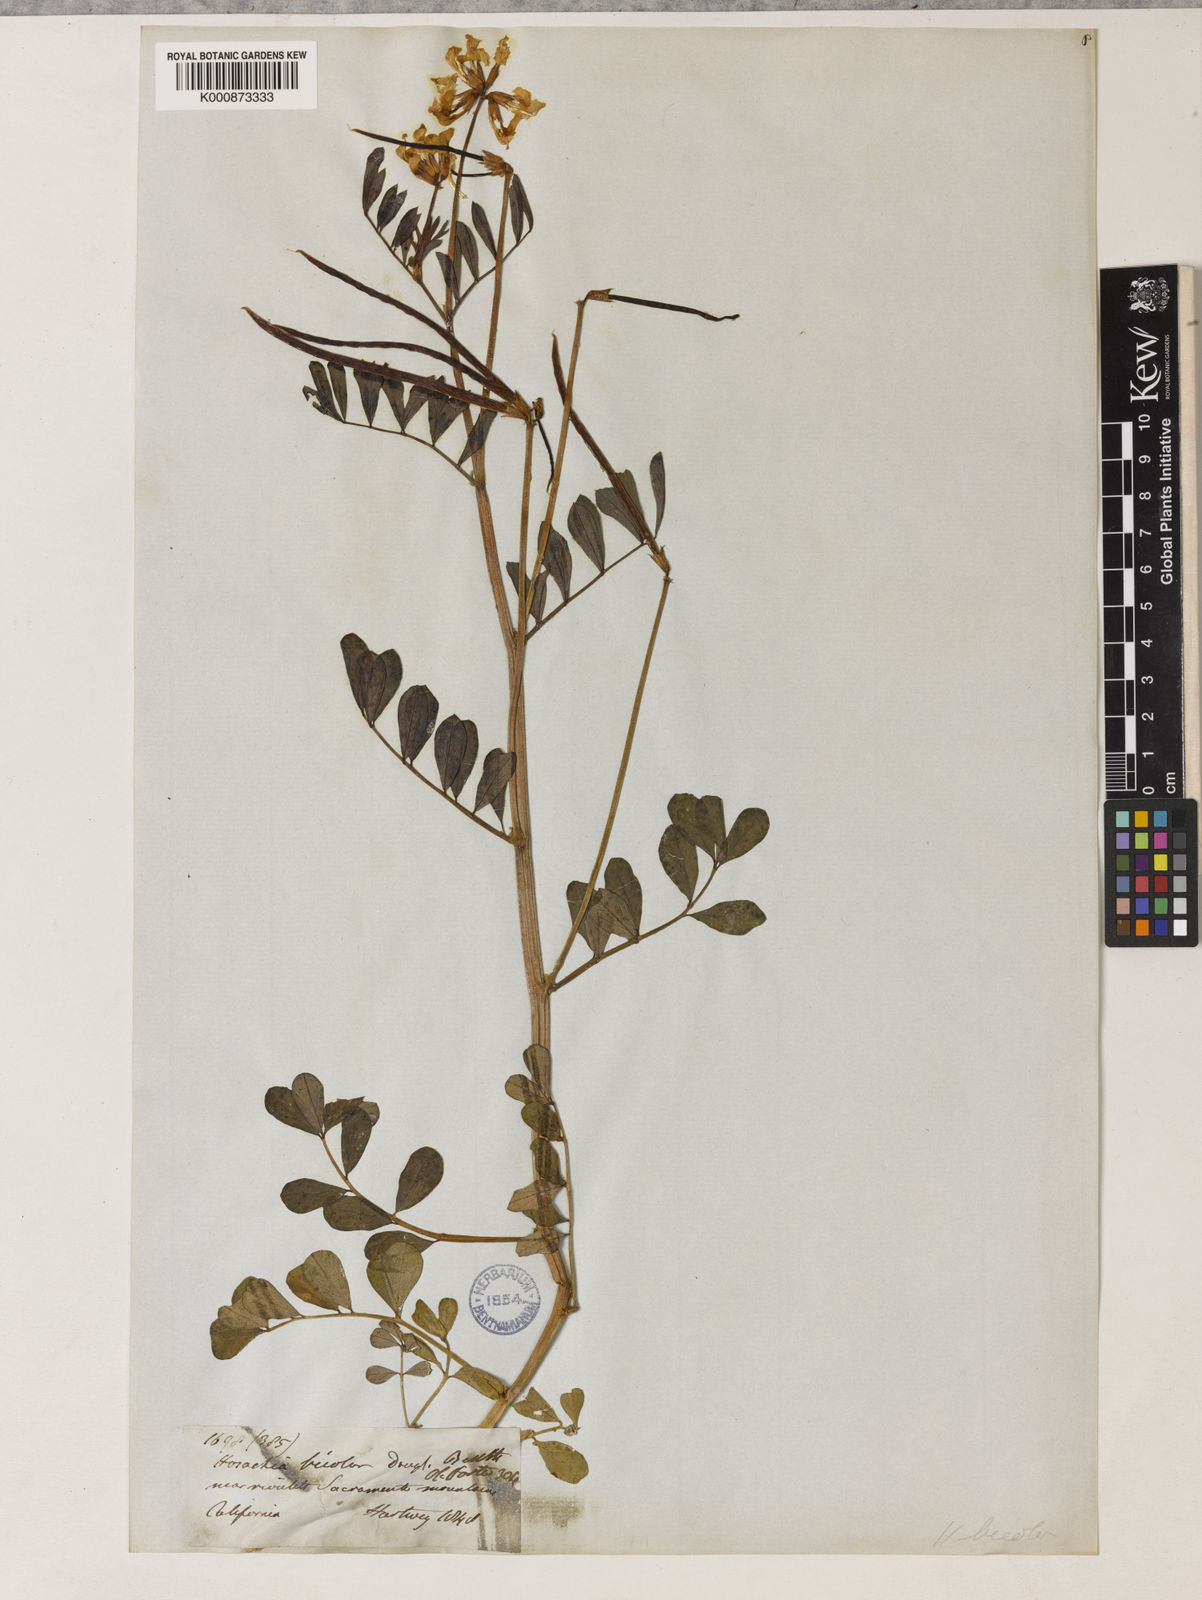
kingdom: Plantae
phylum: Tracheophyta
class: Magnoliopsida
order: Fabales
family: Fabaceae
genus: Hosackia
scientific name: Hosackia pinnata
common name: Bog bird's-foot trefoil
